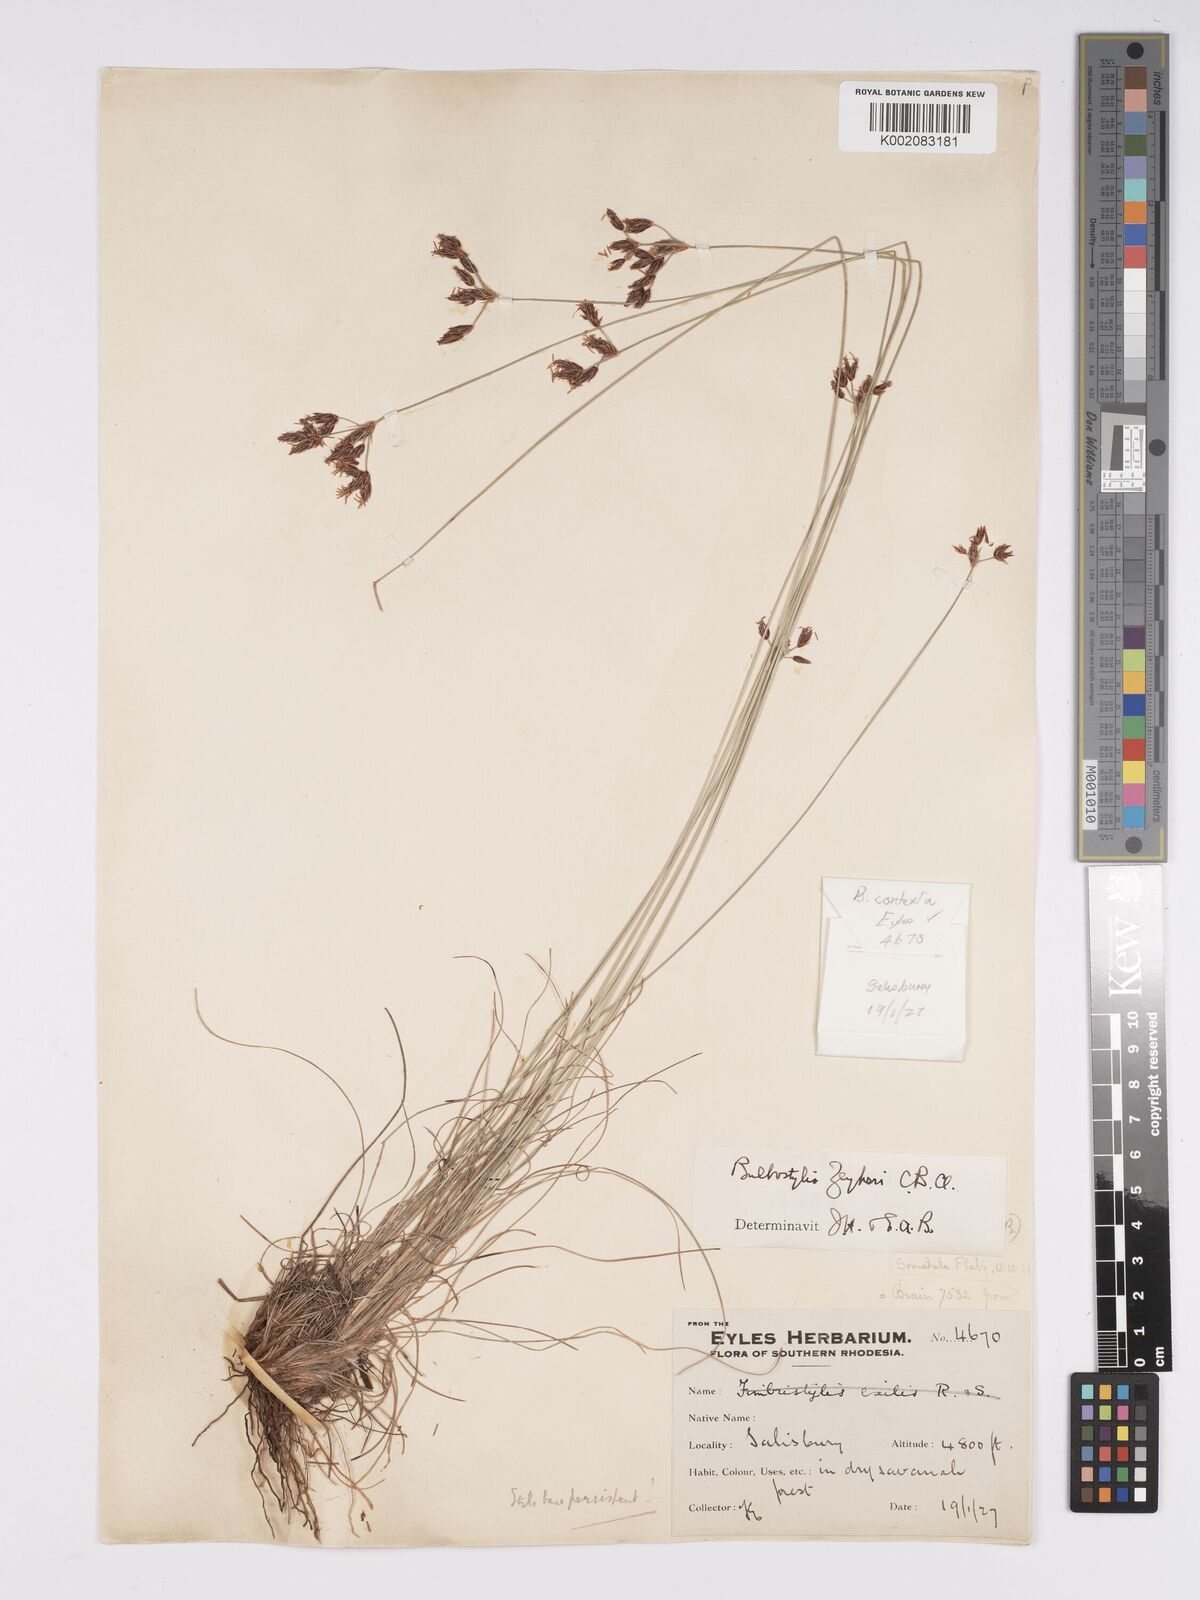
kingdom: Plantae
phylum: Tracheophyta
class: Liliopsida
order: Poales
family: Cyperaceae
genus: Bulbostylis
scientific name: Bulbostylis contexta
